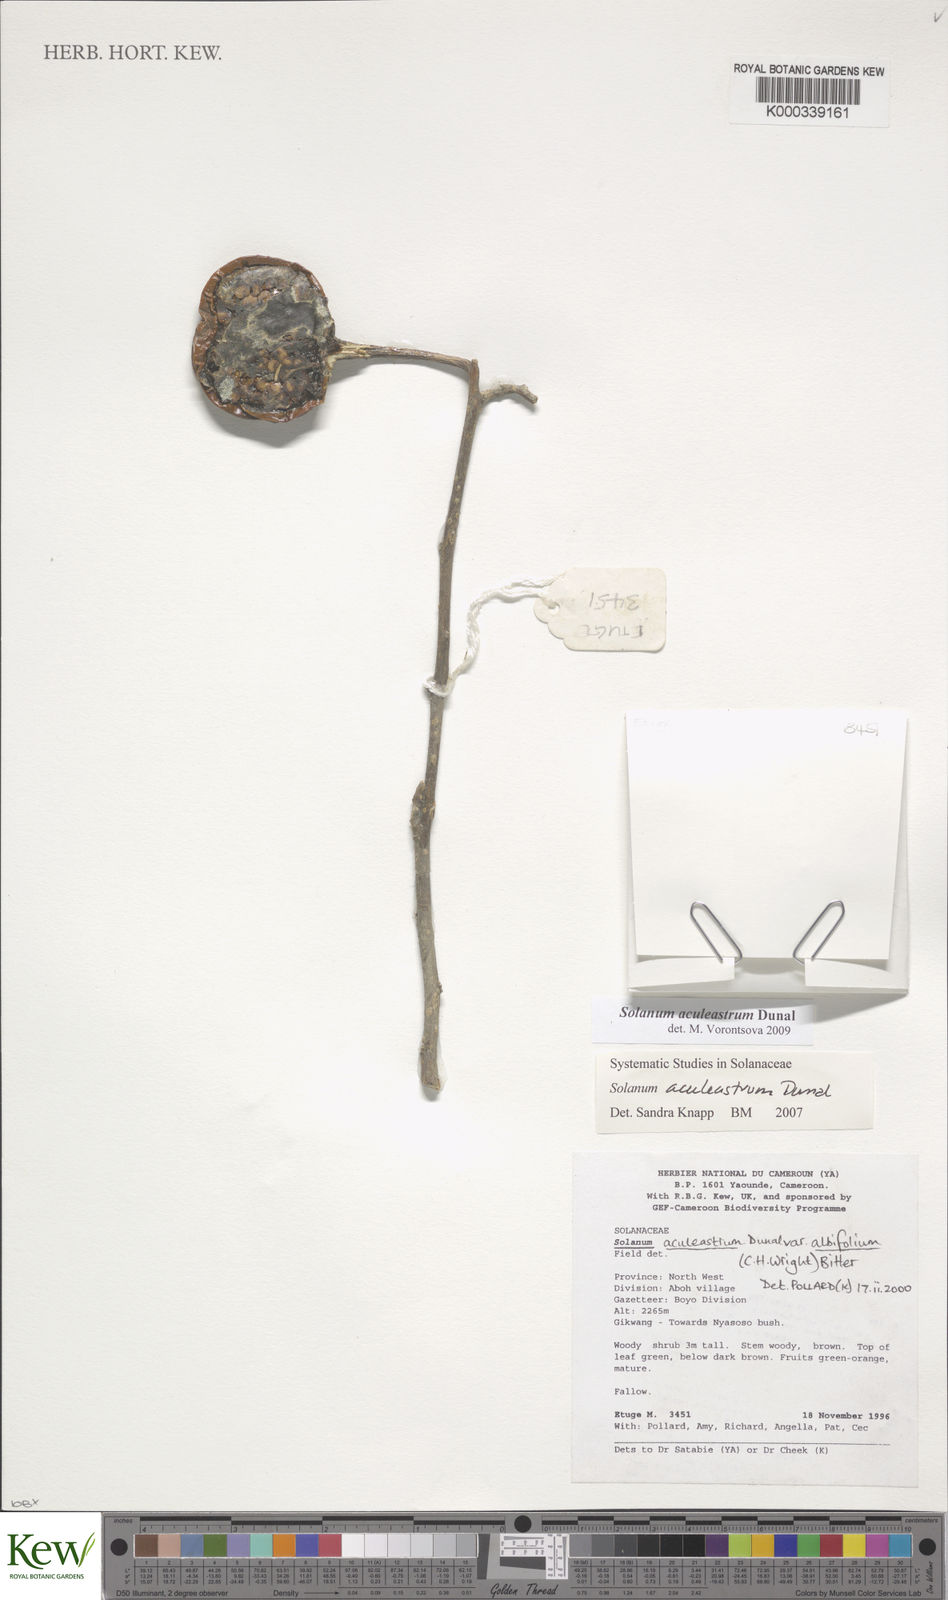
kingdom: Plantae
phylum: Tracheophyta
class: Magnoliopsida
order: Solanales
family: Solanaceae
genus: Solanum
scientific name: Solanum aculeastrum
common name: Goat bitter-apple
